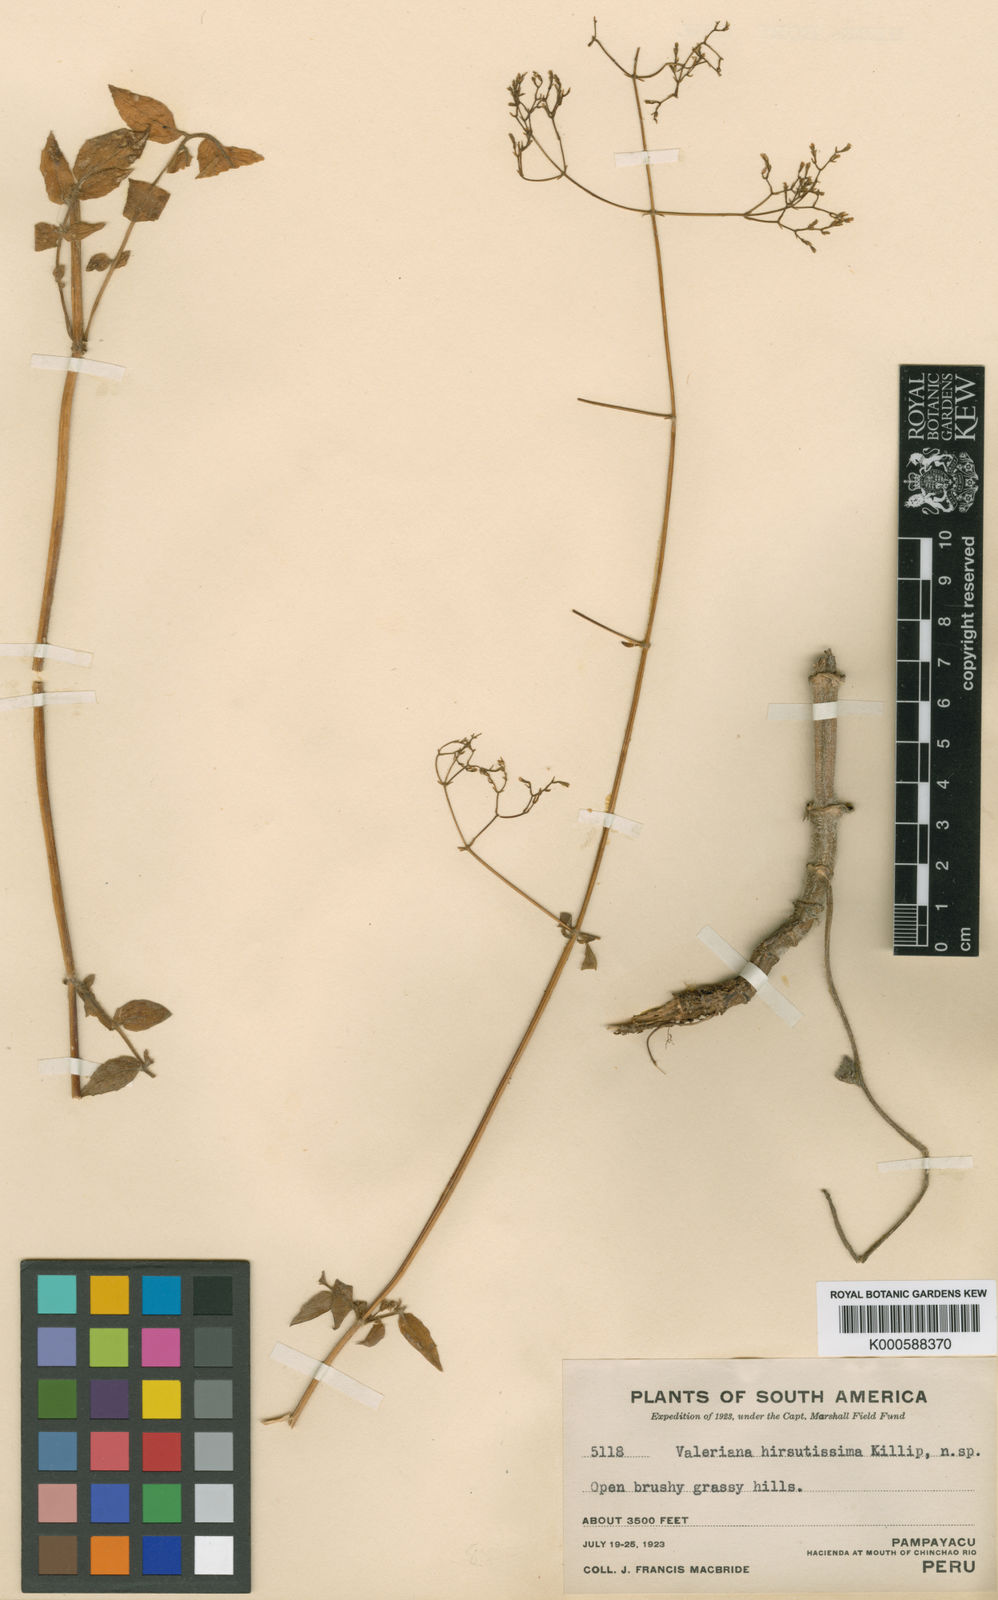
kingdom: Plantae
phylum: Tracheophyta
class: Magnoliopsida
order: Dipsacales
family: Caprifoliaceae
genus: Valeriana
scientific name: Valeriana macbridei
